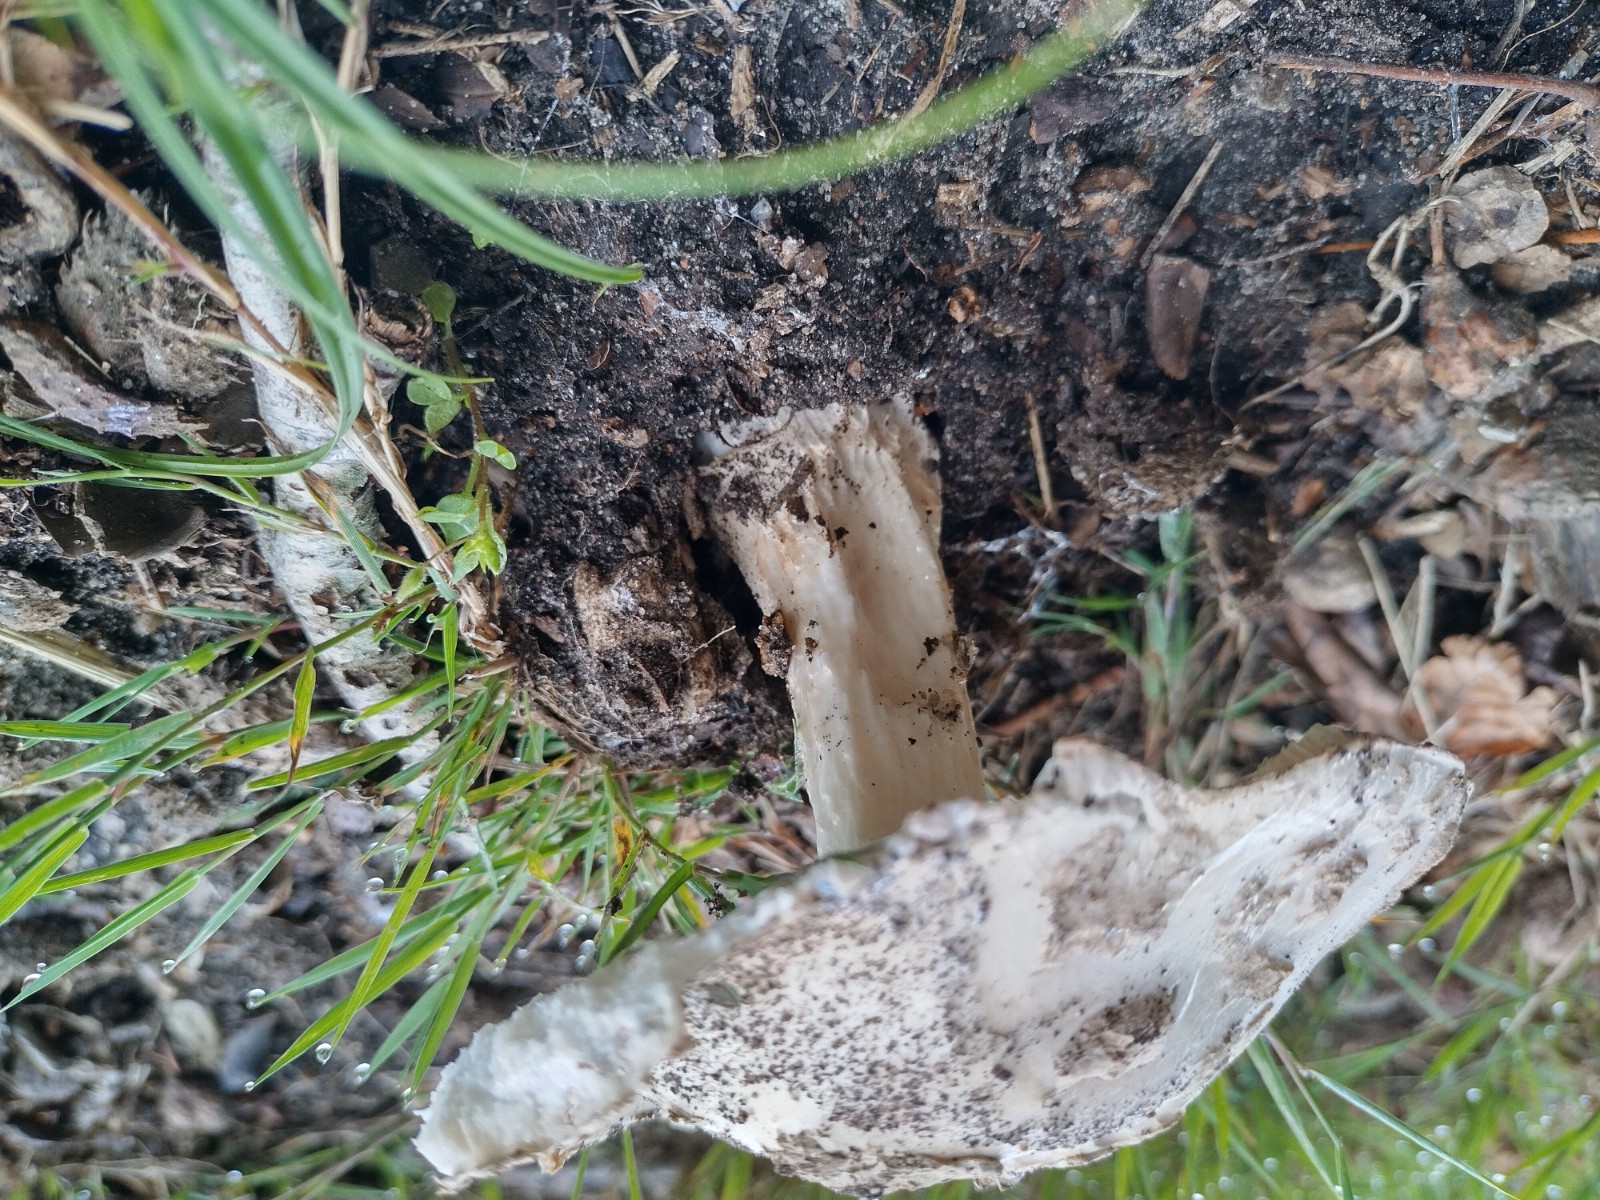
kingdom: Fungi
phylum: Basidiomycota
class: Agaricomycetes
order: Agaricales
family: Amanitaceae
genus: Amanita
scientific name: Amanita
